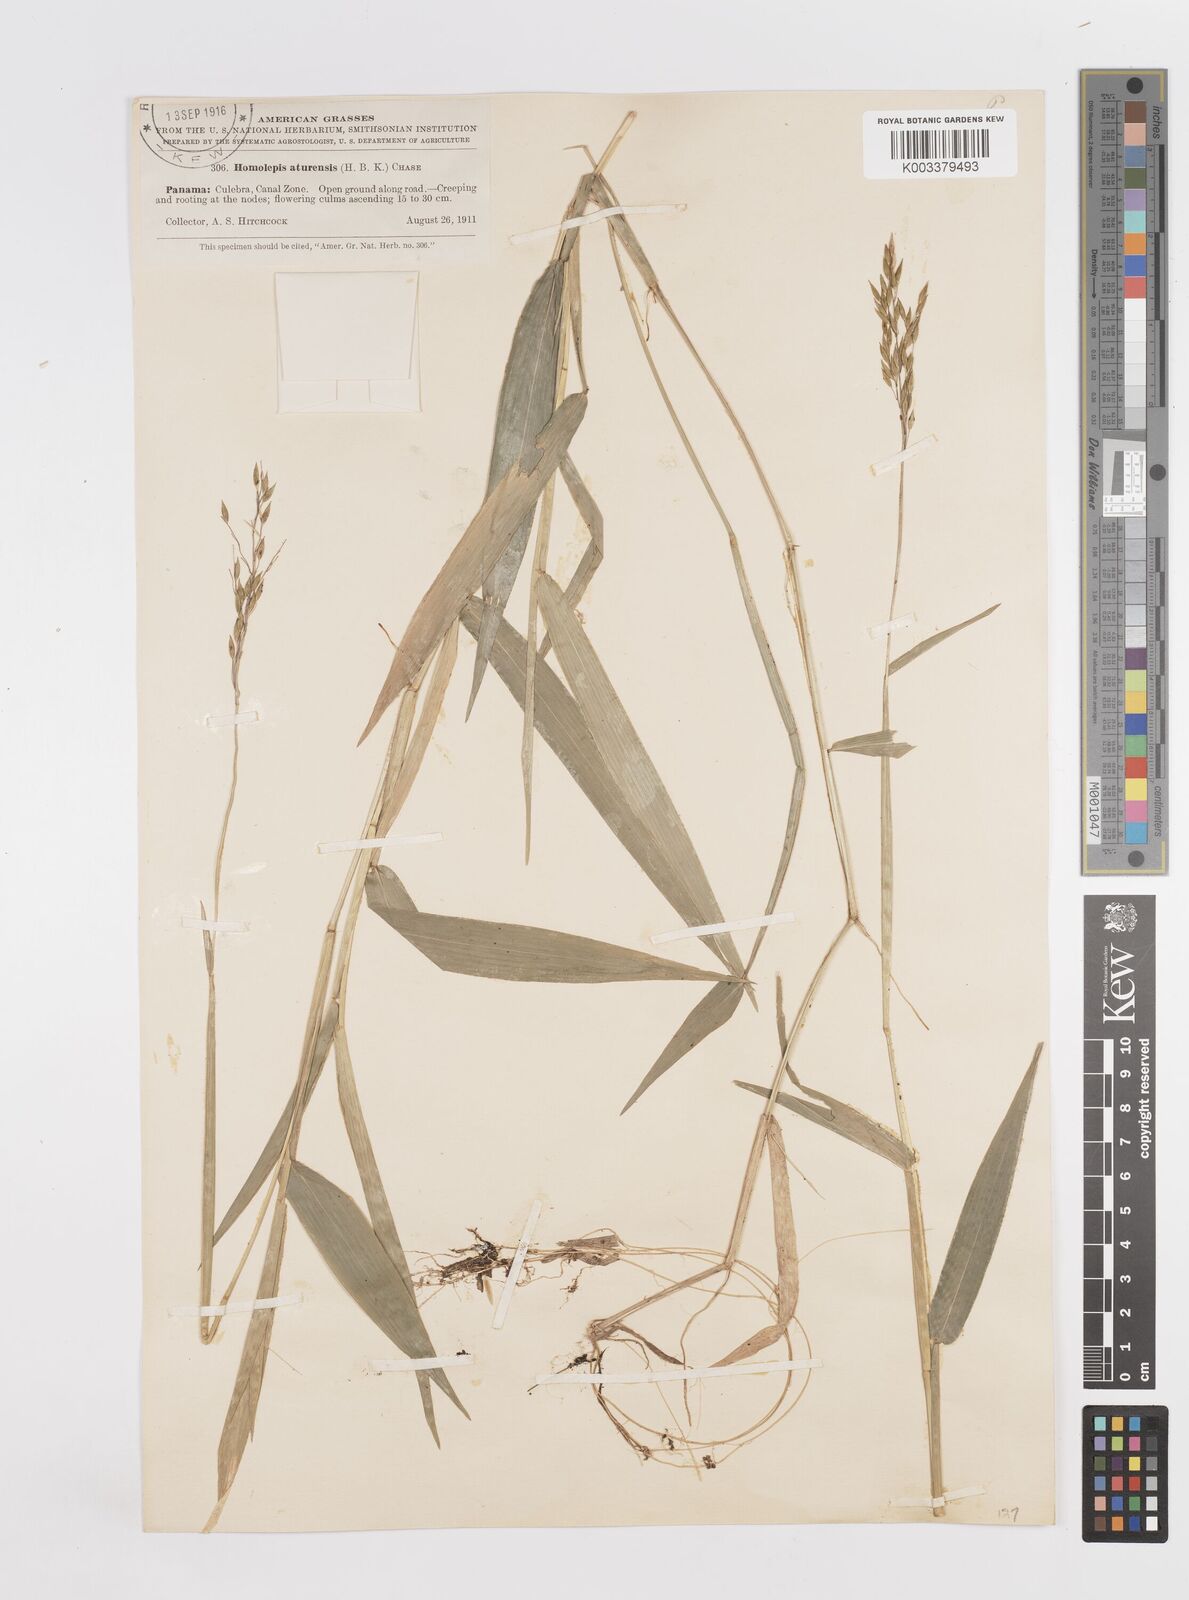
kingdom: Plantae
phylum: Tracheophyta
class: Liliopsida
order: Poales
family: Poaceae
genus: Homolepis
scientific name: Homolepis aturensis
